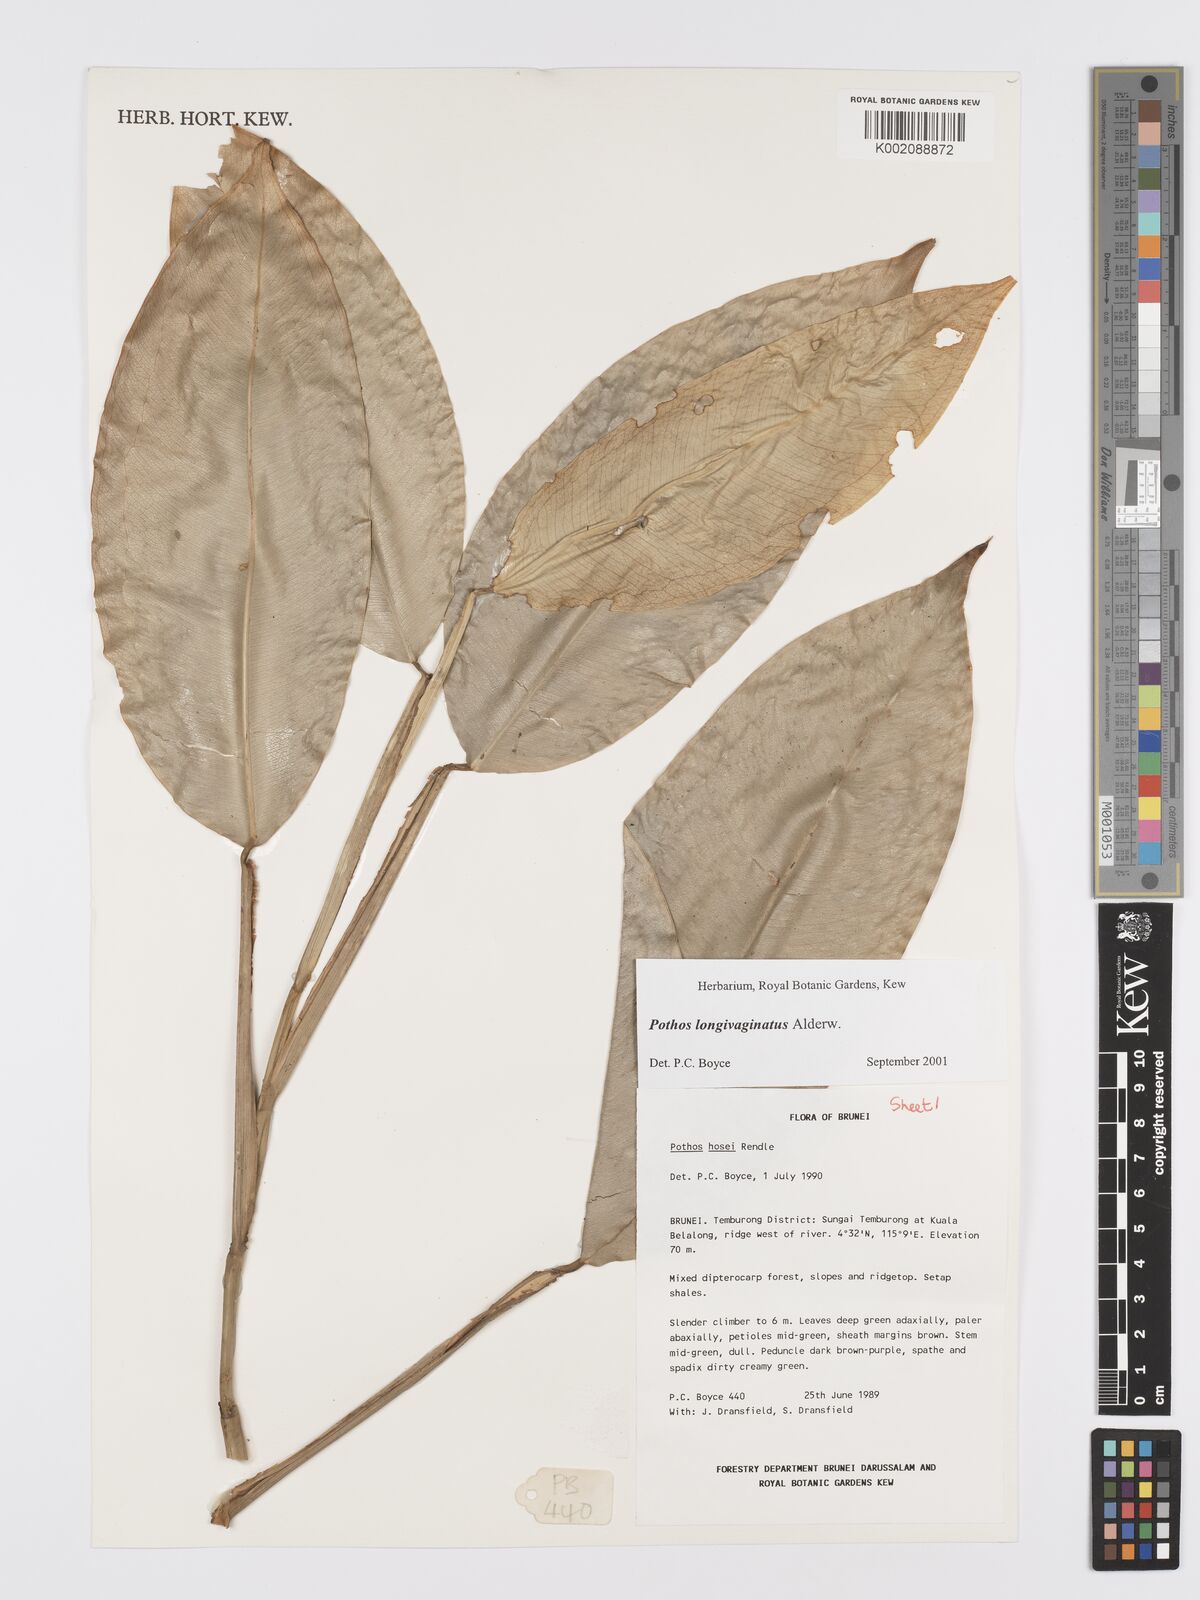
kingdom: Plantae
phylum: Tracheophyta
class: Liliopsida
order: Alismatales
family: Araceae
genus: Pothos
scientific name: Pothos longivaginatus
